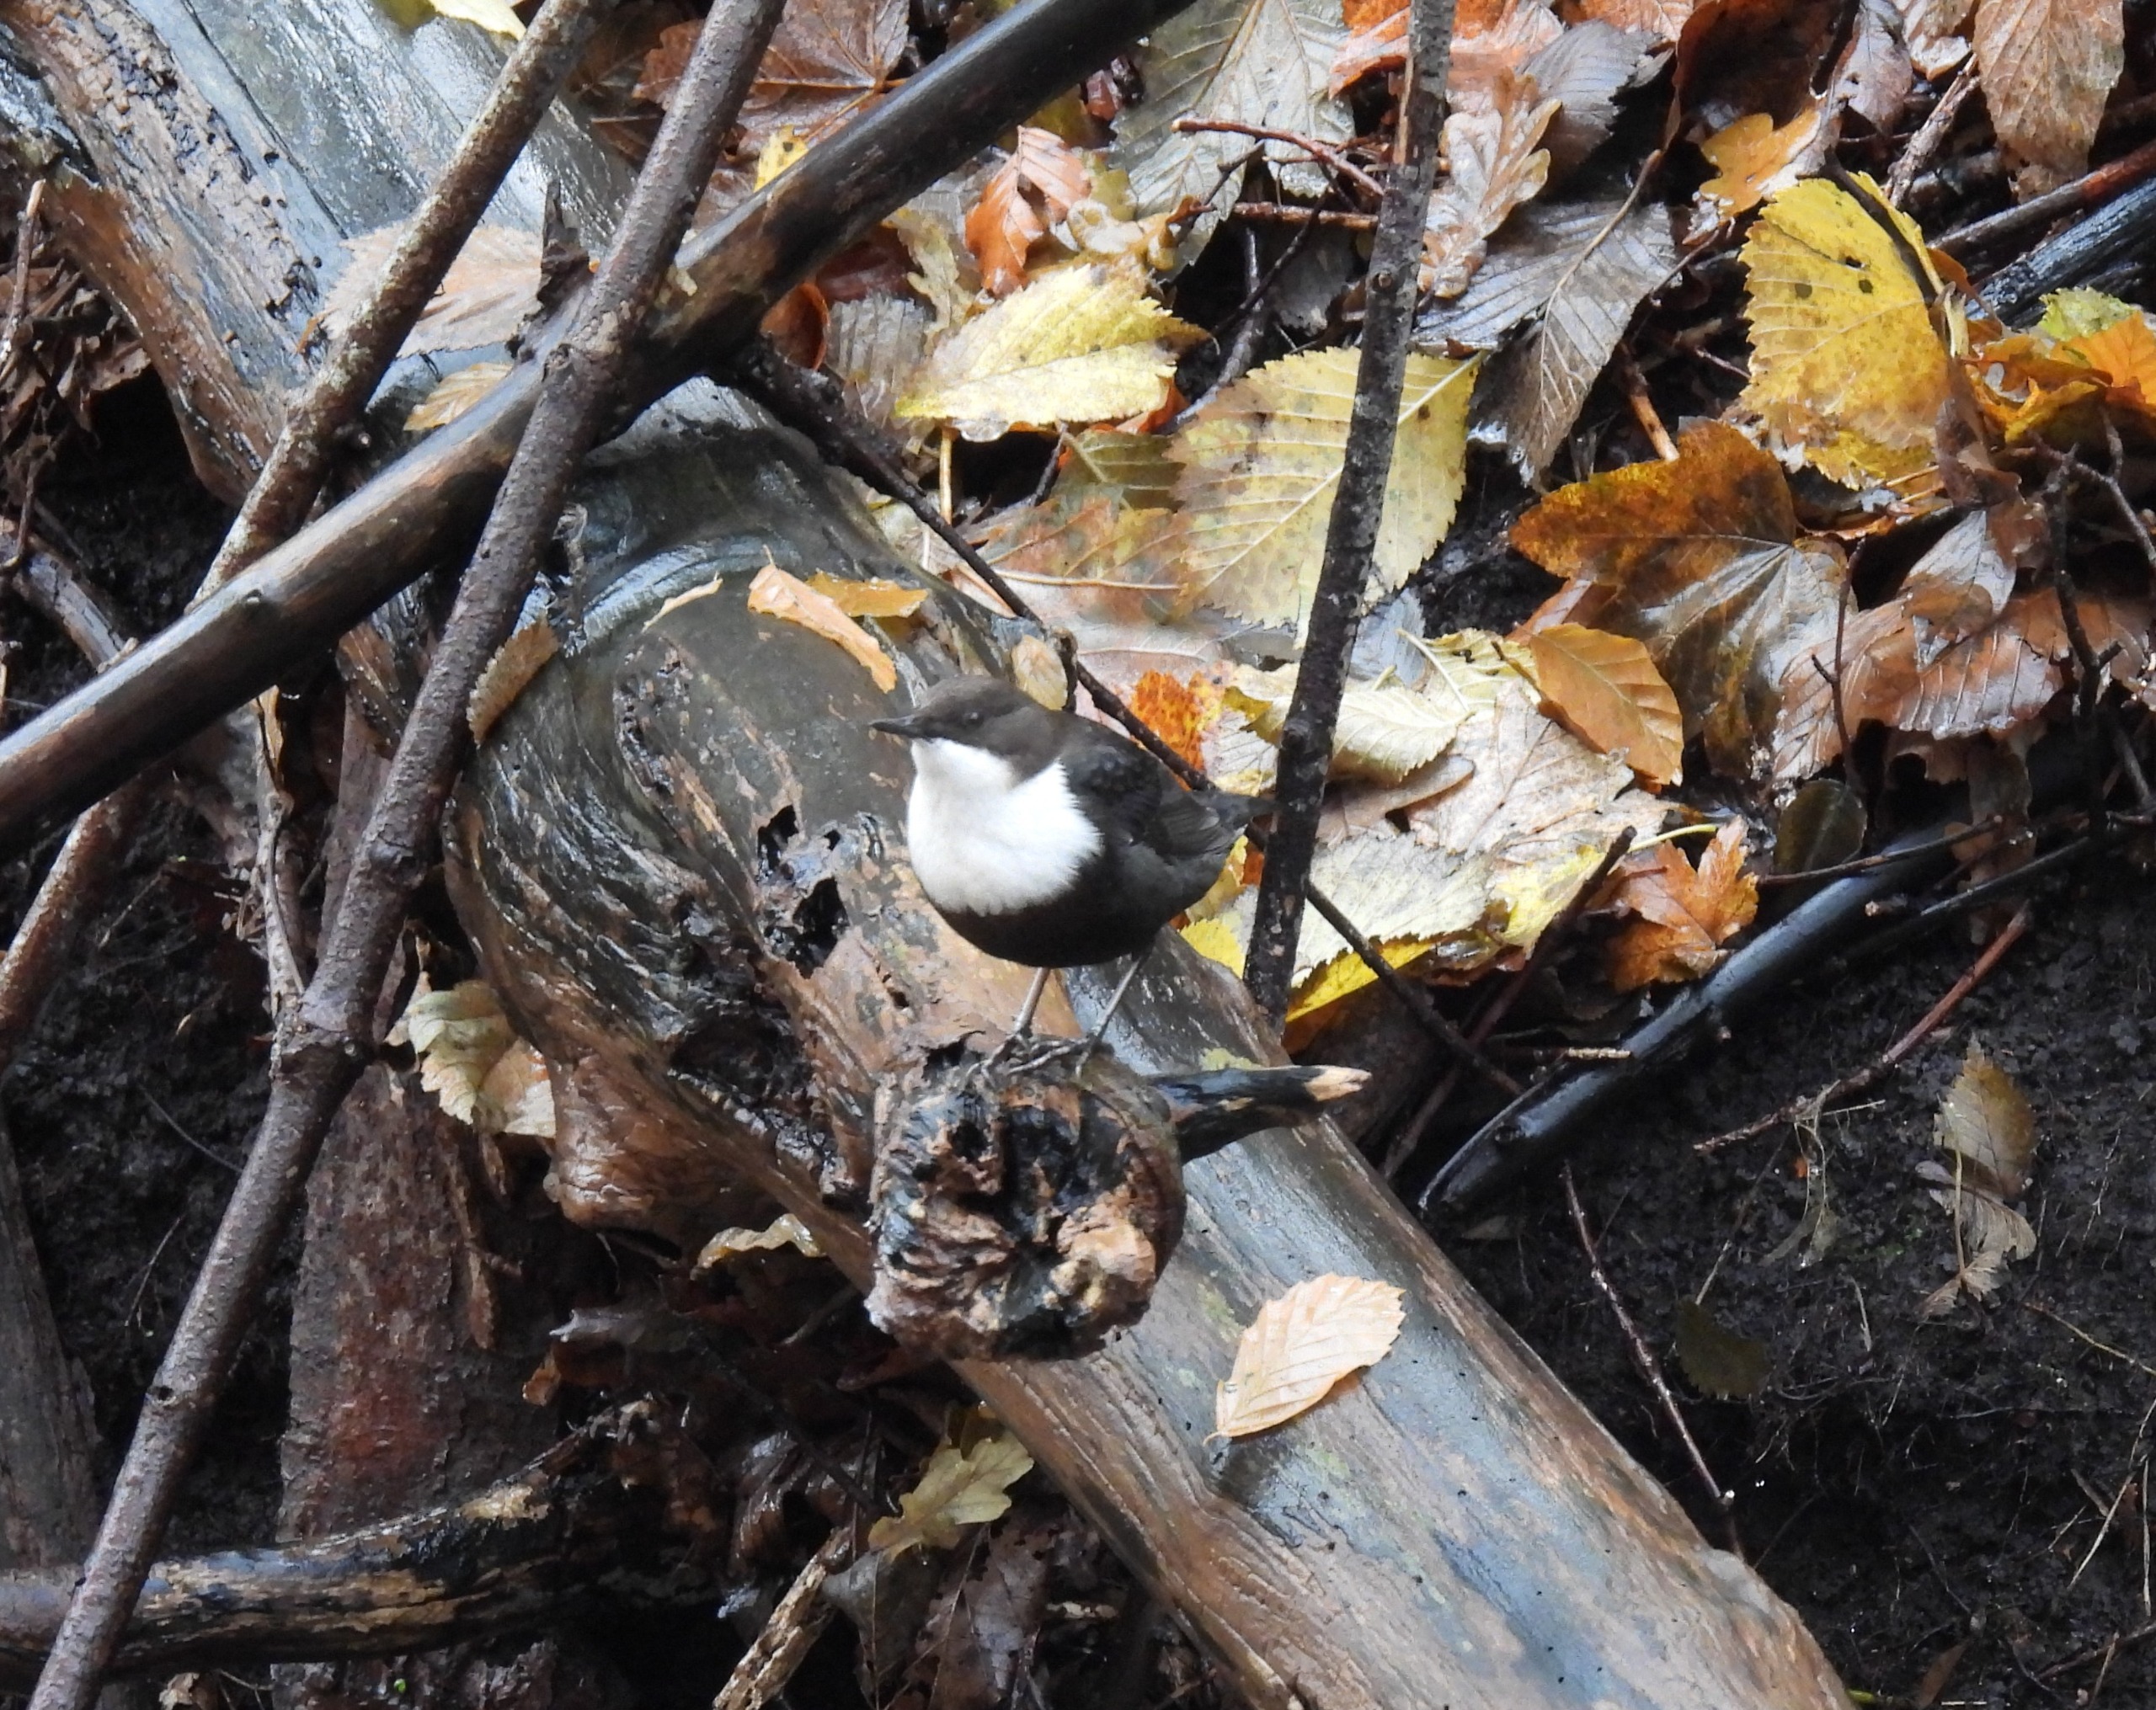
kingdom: Animalia
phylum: Chordata
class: Aves
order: Passeriformes
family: Cinclidae
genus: Cinclus
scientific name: Cinclus cinclus
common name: Vandstær
